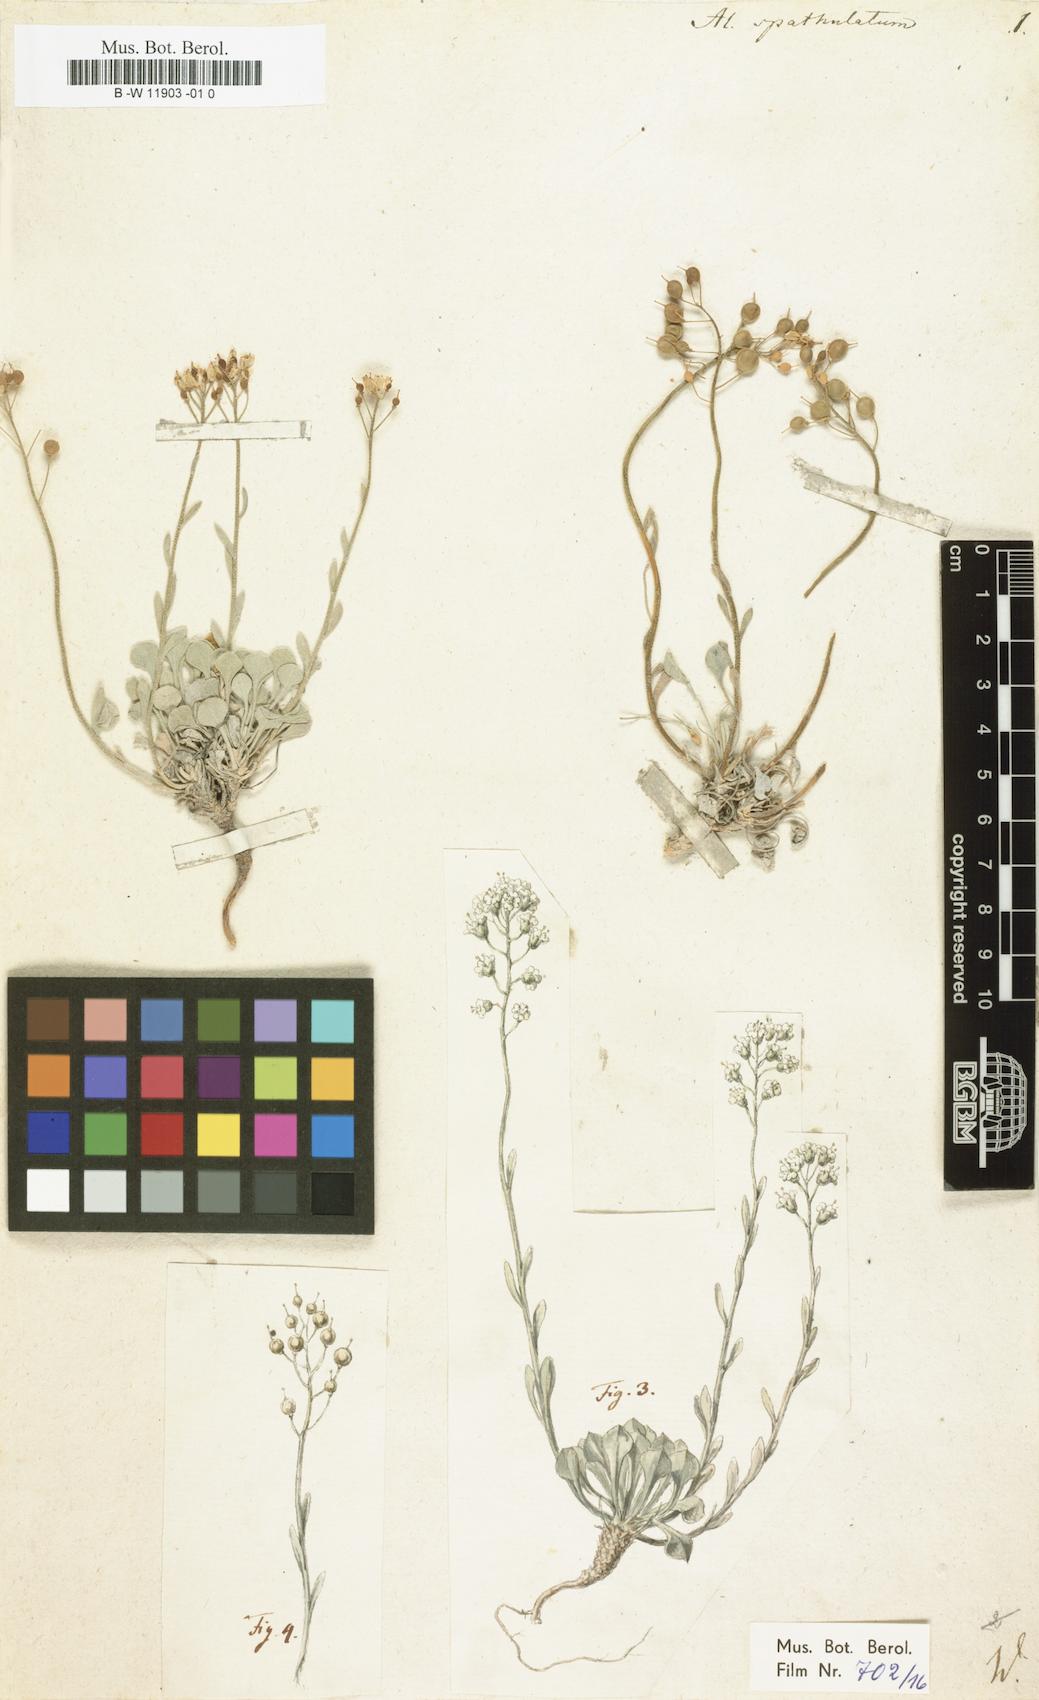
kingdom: Plantae
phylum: Tracheophyta
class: Magnoliopsida
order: Brassicales
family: Brassicaceae
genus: Galitzkya
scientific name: Galitzkya spathulata
